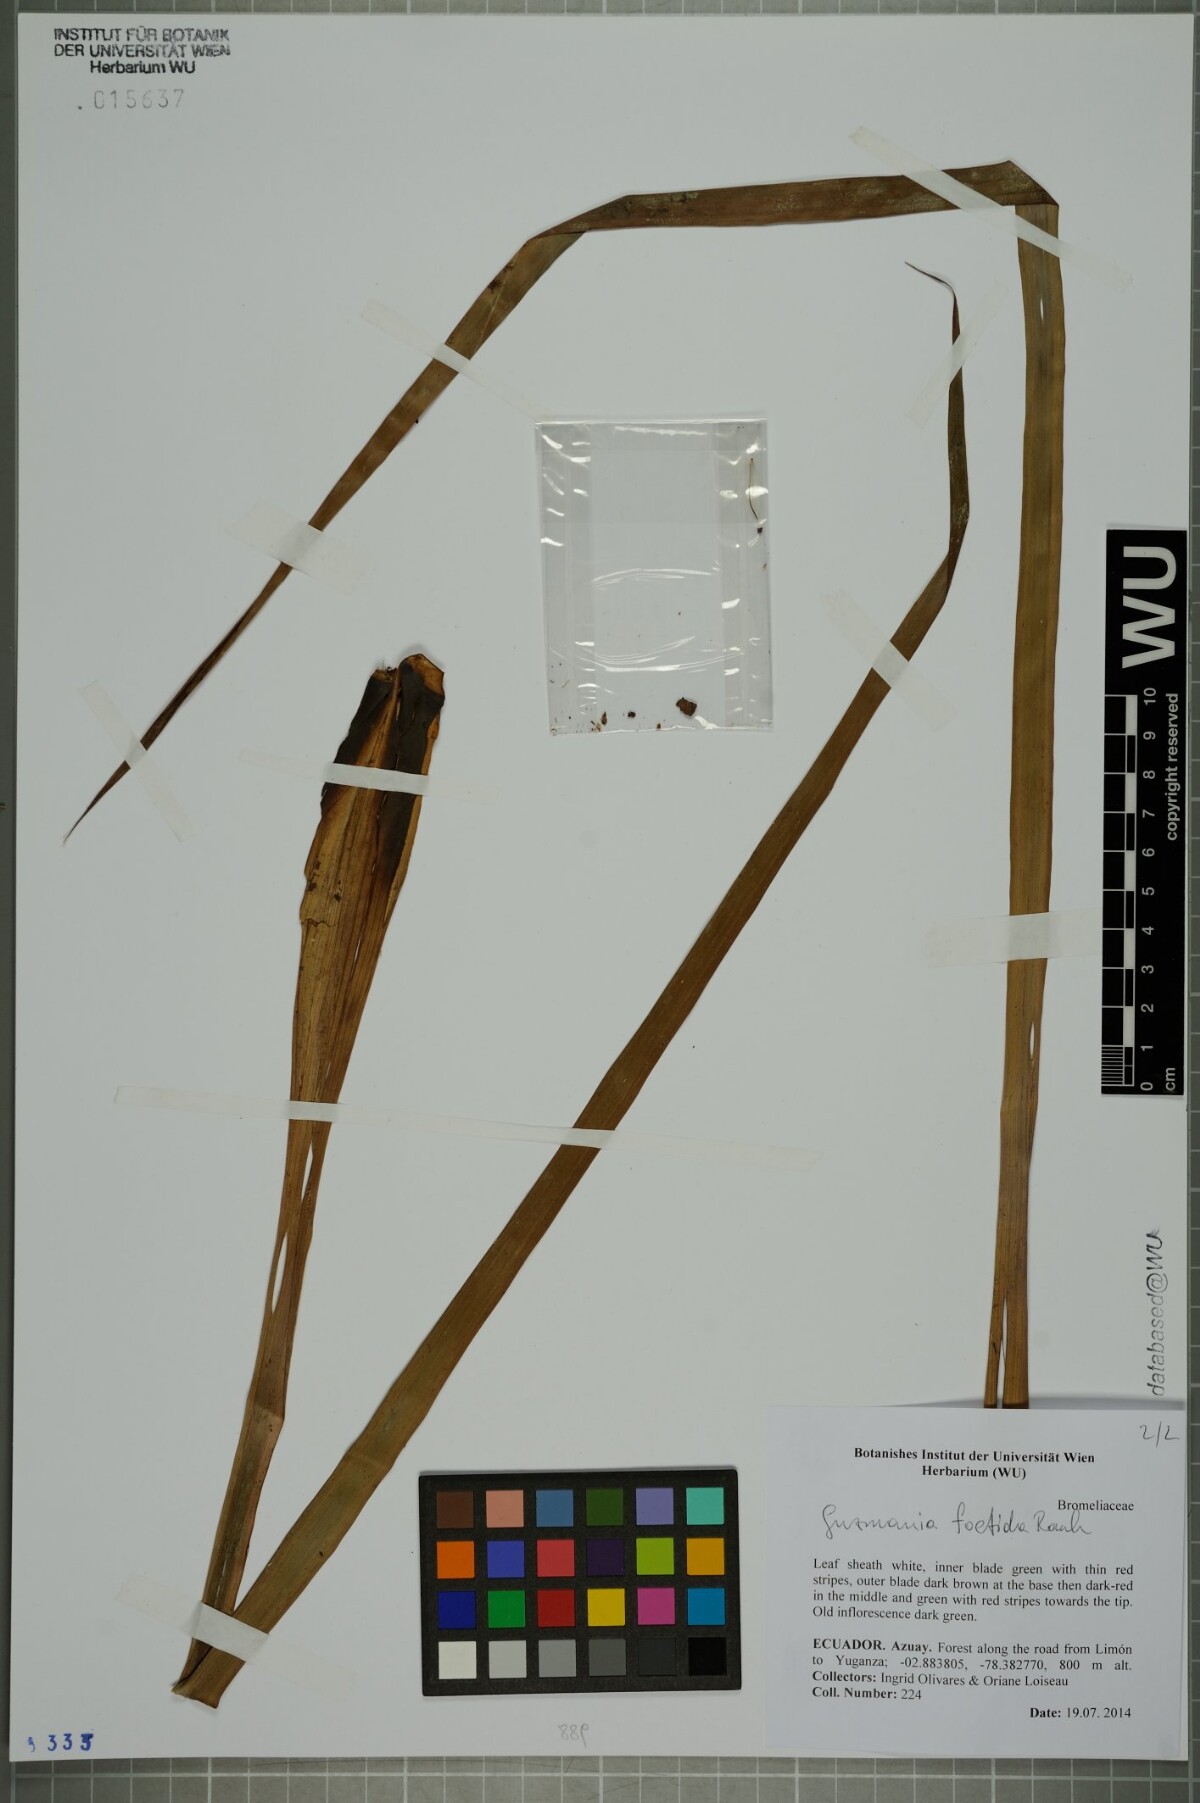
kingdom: Plantae
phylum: Tracheophyta
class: Liliopsida
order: Poales
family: Bromeliaceae
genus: Guzmania
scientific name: Guzmania foetida
